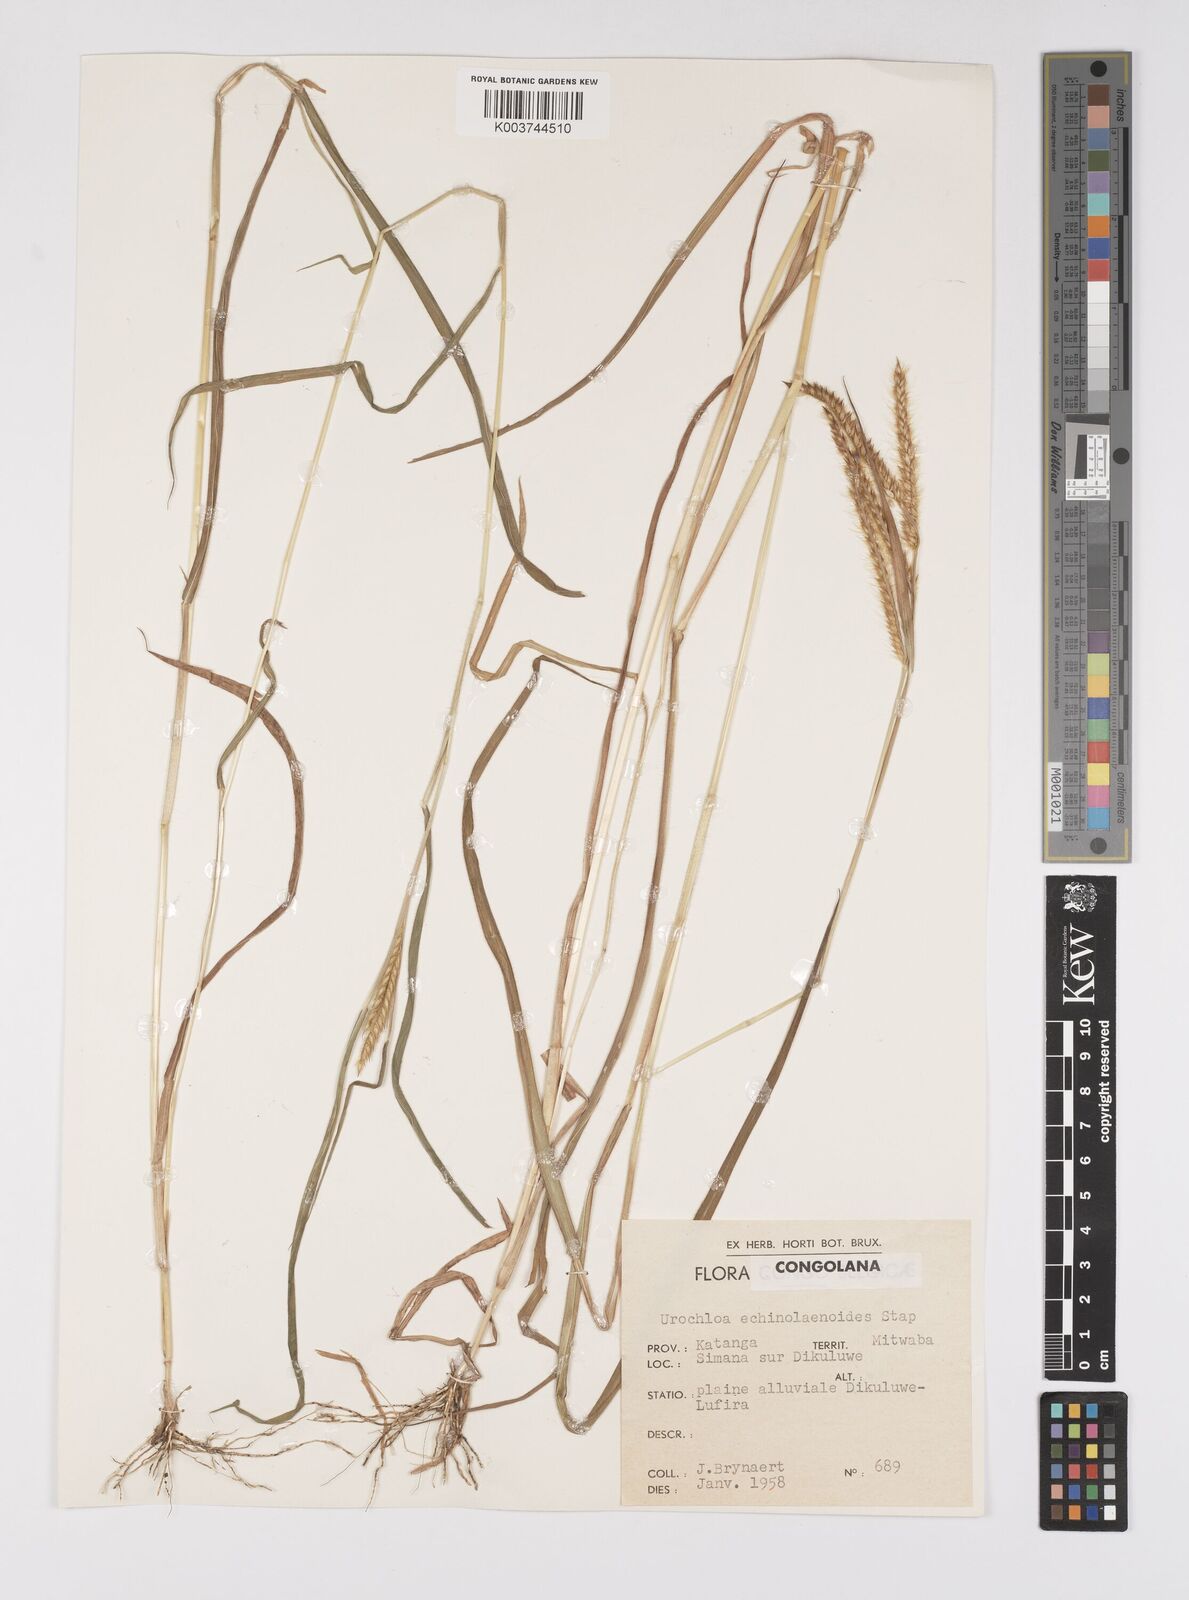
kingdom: Plantae
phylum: Tracheophyta
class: Liliopsida
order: Poales
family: Poaceae
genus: Urochloa
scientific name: Urochloa echinolaenoides
